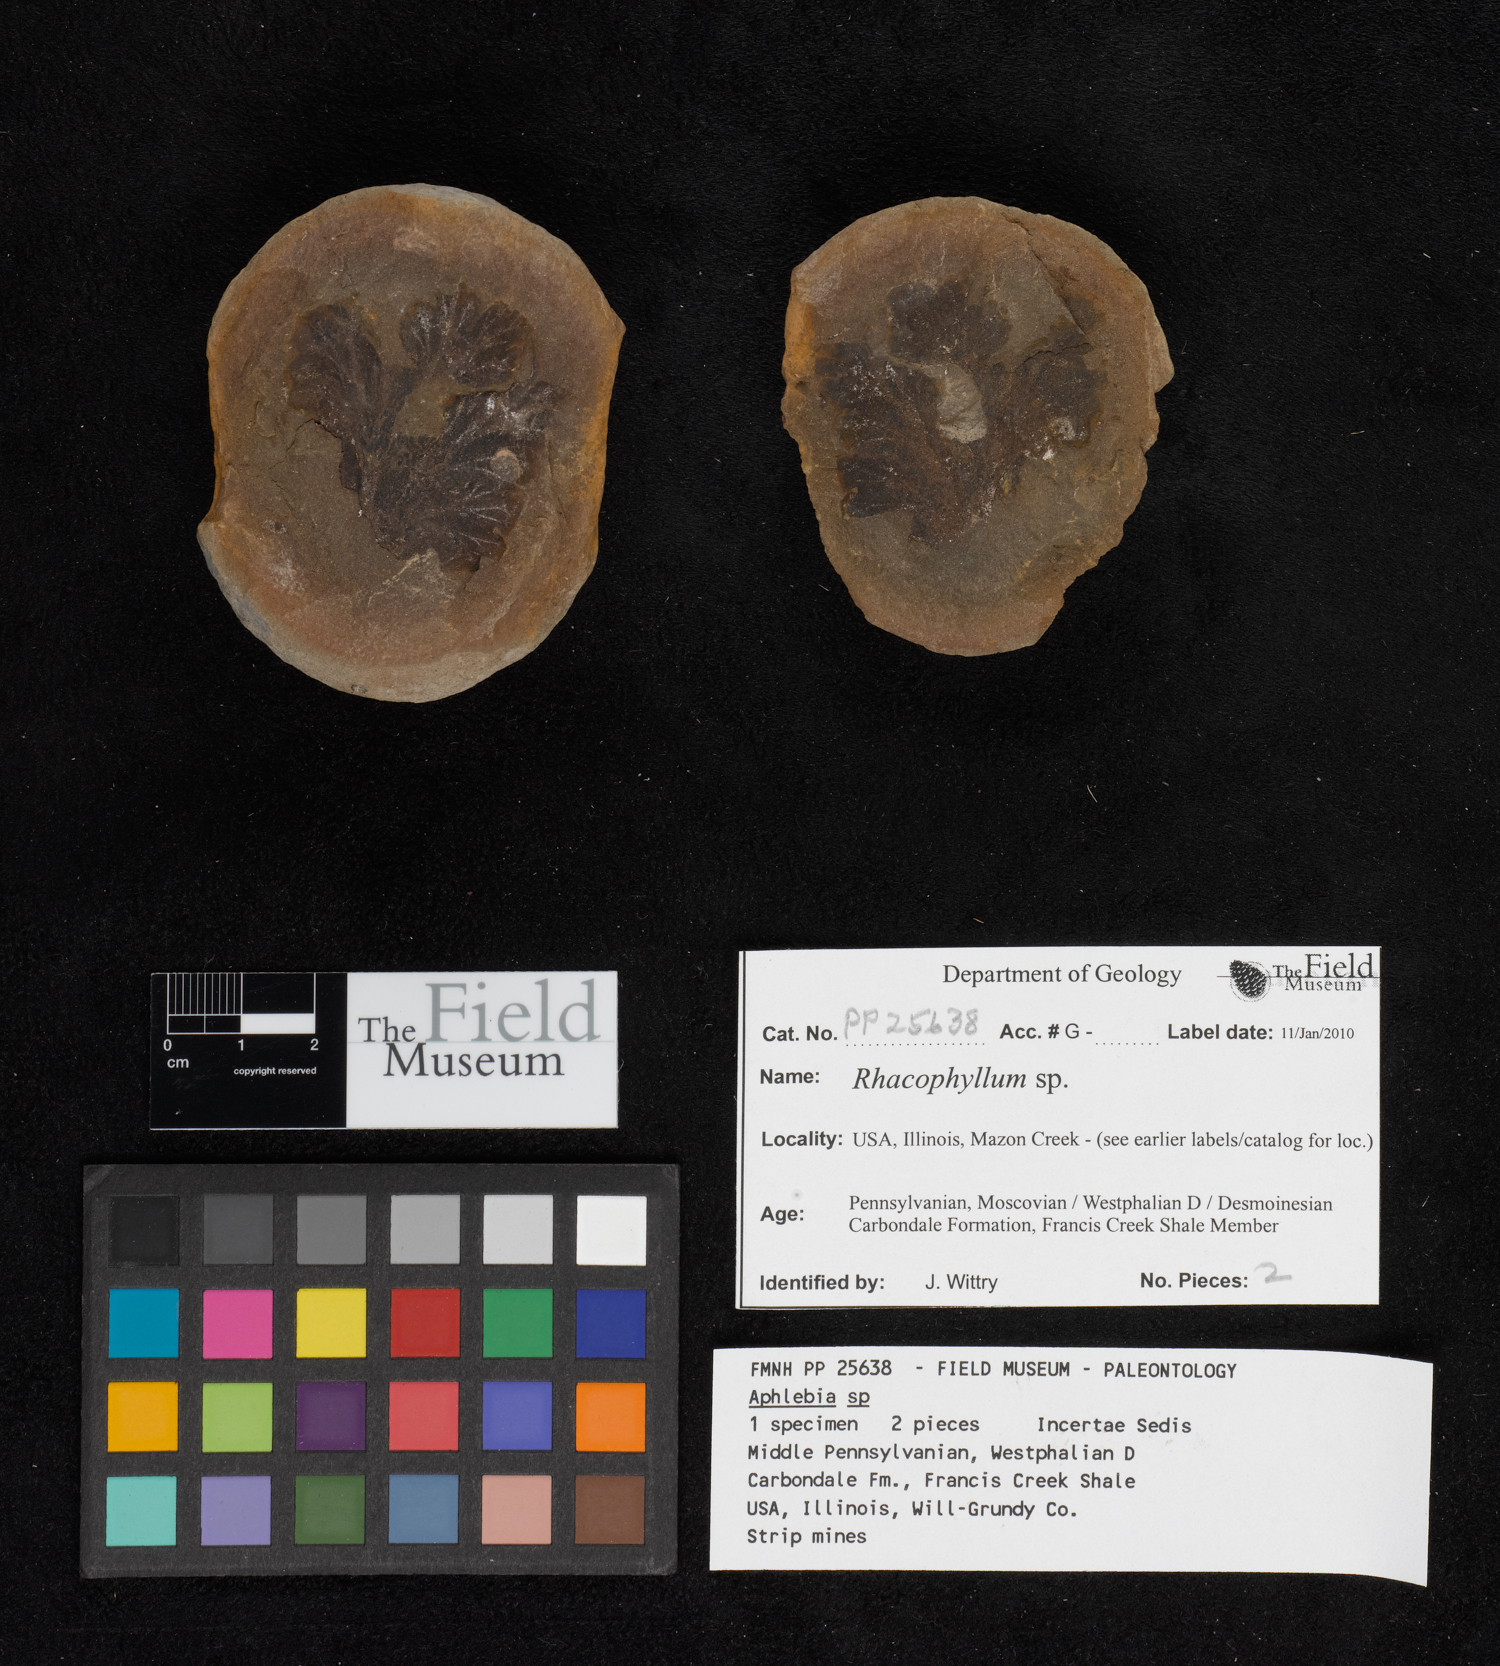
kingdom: Plantae
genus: Rhacophyllum
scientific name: Rhacophyllum
